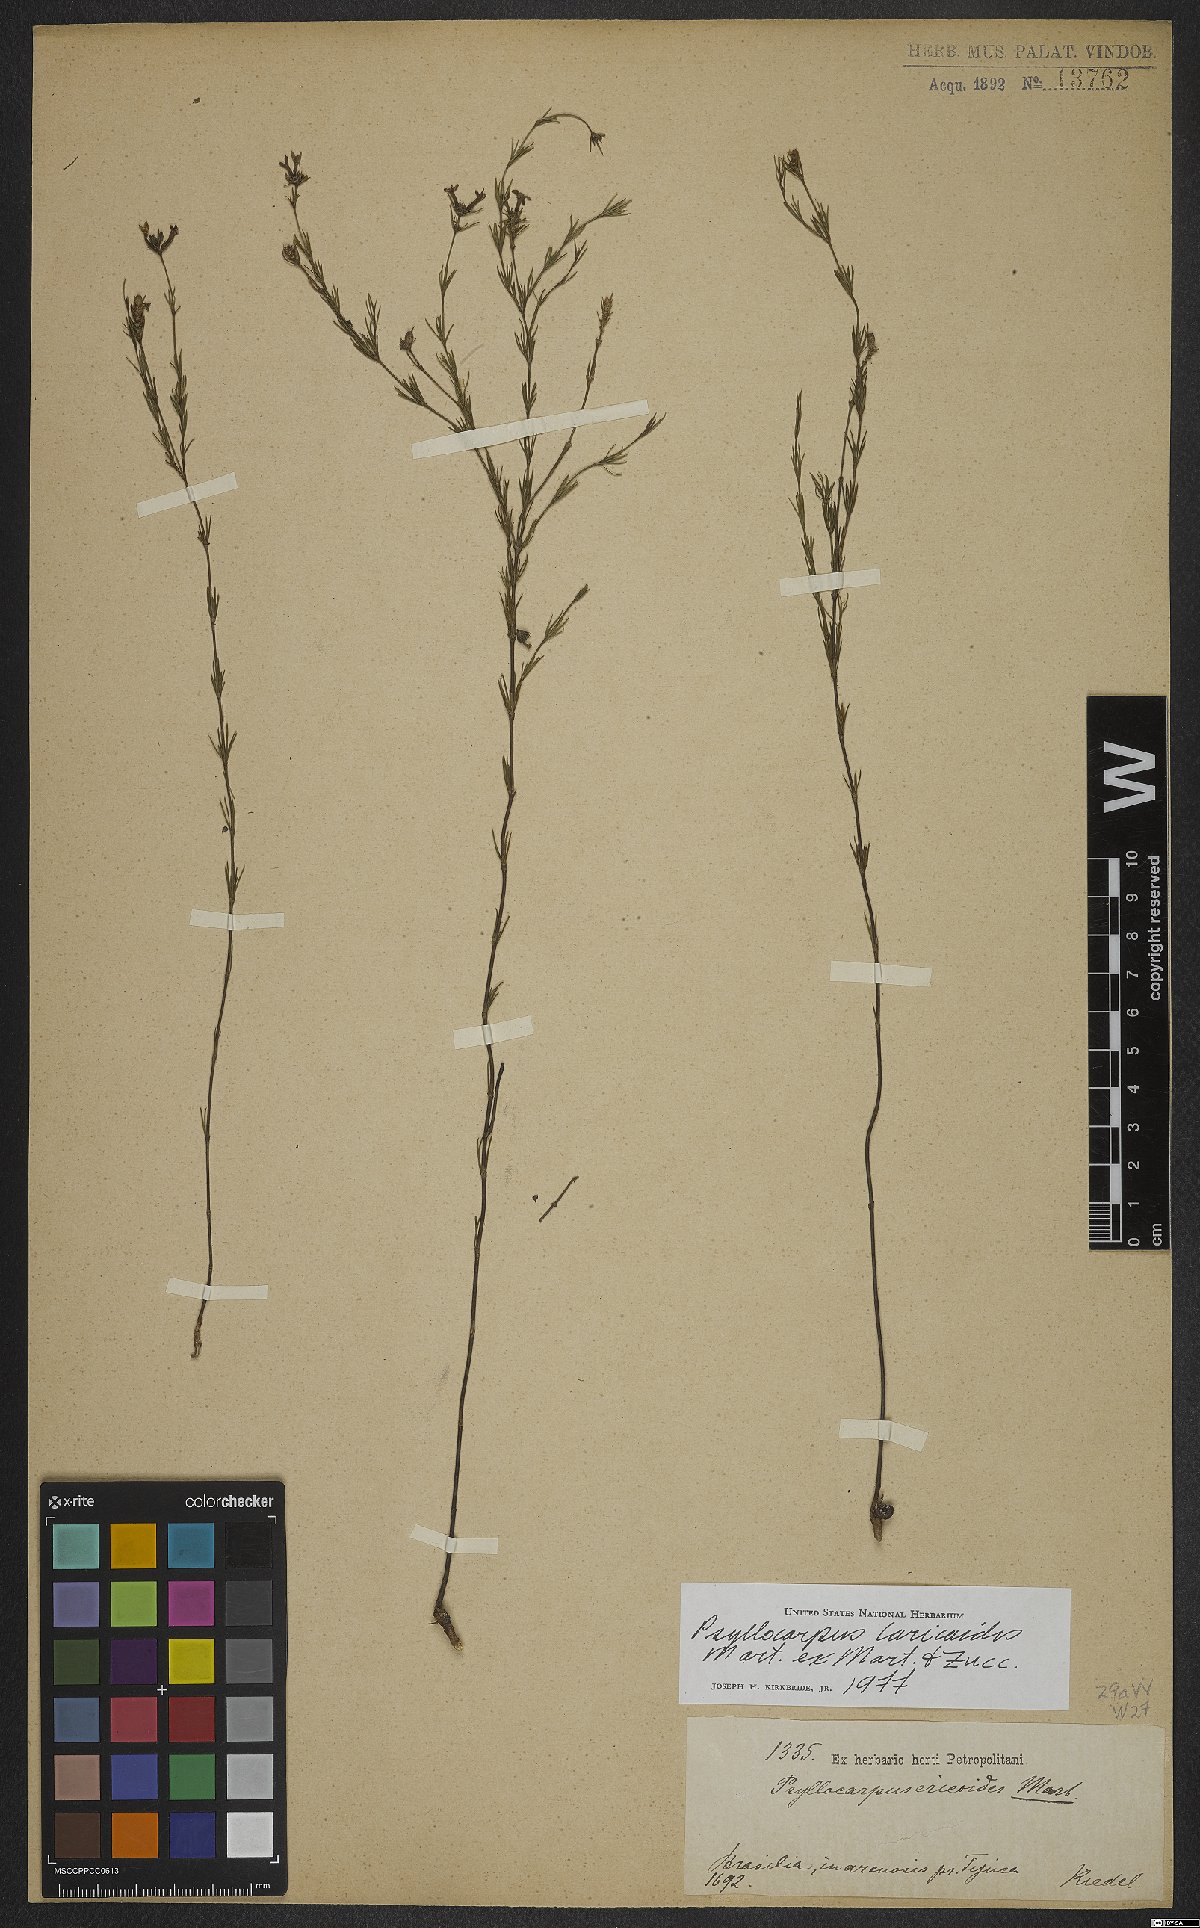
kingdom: Plantae
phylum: Tracheophyta
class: Magnoliopsida
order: Gentianales
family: Rubiaceae
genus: Psyllocarpus
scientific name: Psyllocarpus laricoides
